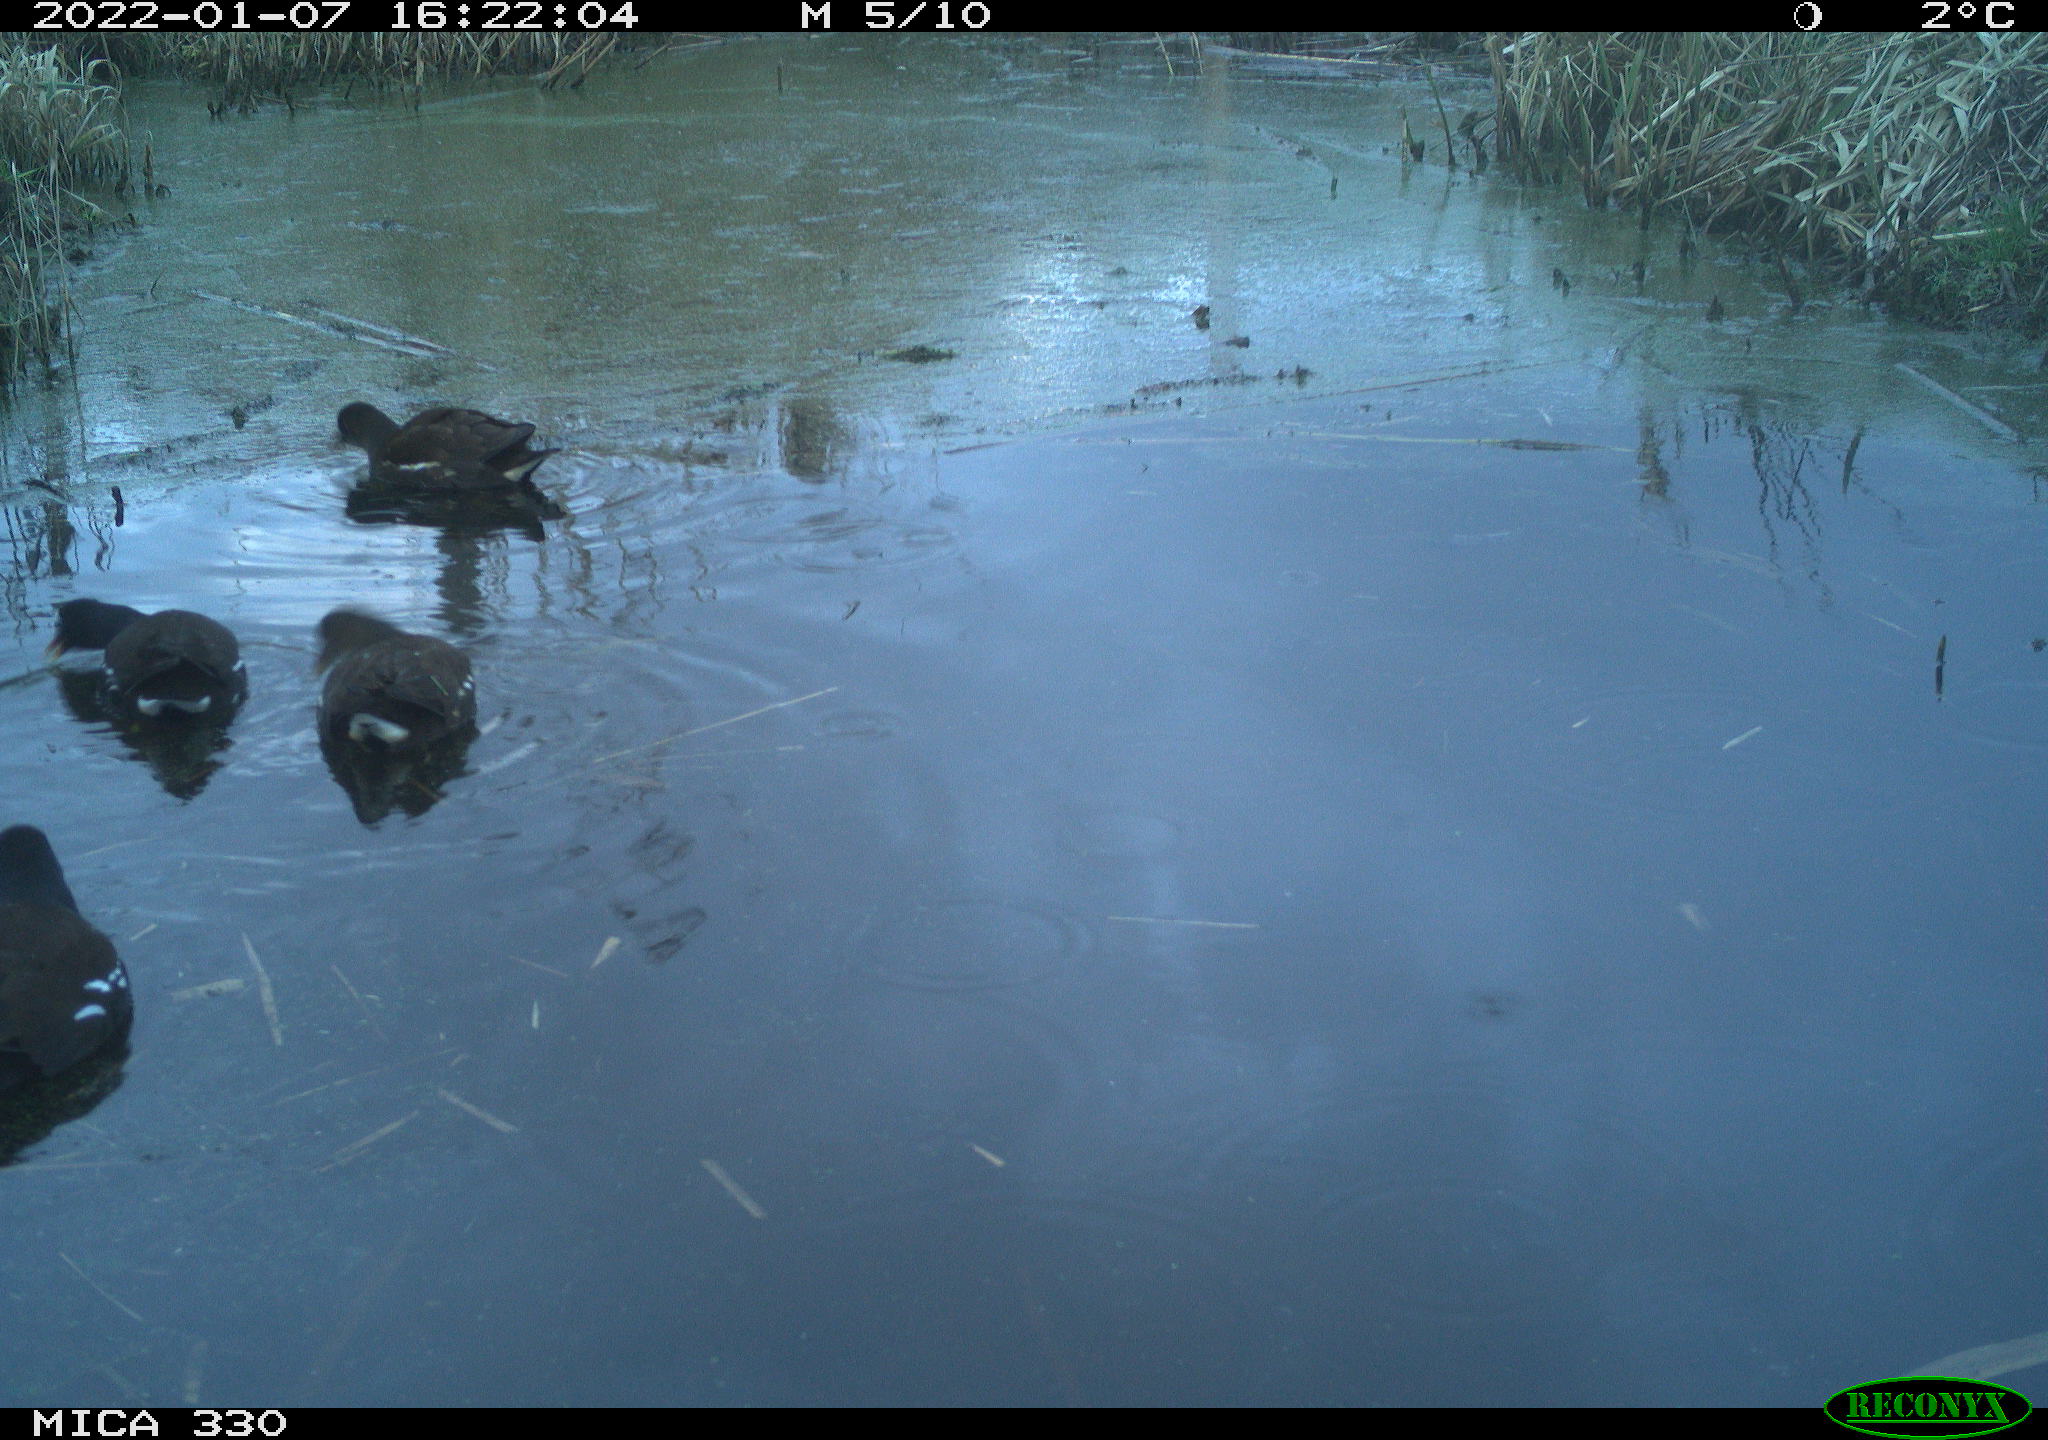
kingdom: Animalia
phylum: Chordata
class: Aves
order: Gruiformes
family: Rallidae
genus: Gallinula
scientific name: Gallinula chloropus
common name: Common moorhen
